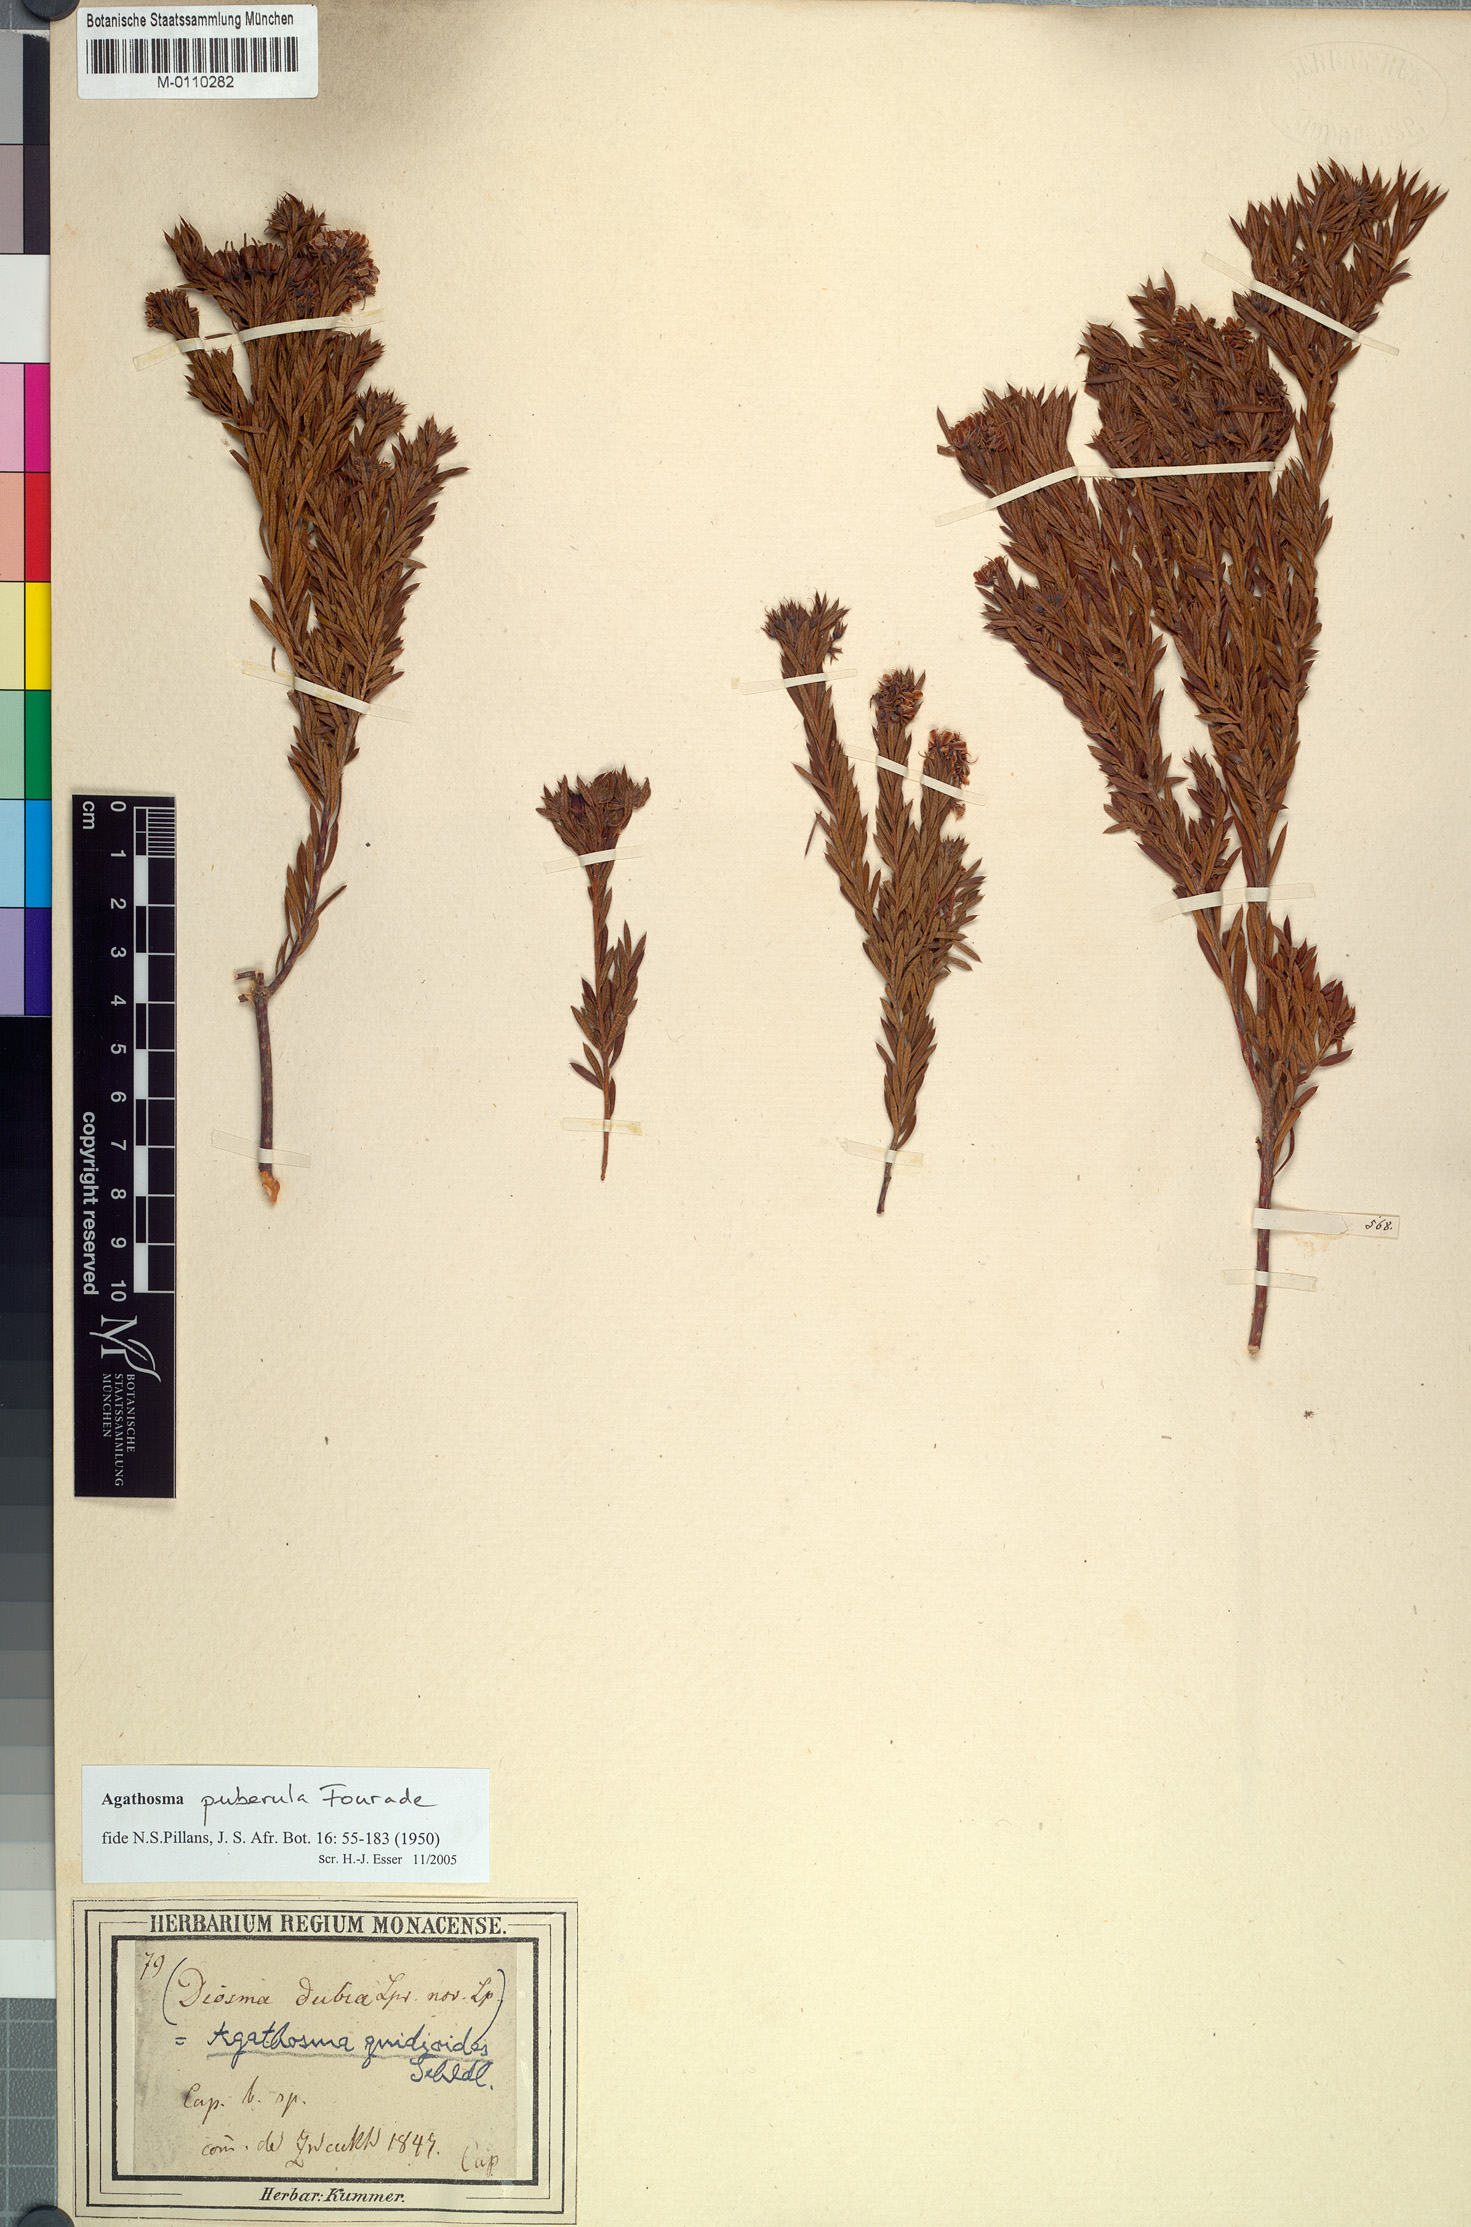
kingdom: Plantae
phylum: Tracheophyta
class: Magnoliopsida
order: Sapindales
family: Rutaceae
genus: Agathosma
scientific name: Agathosma puberula
